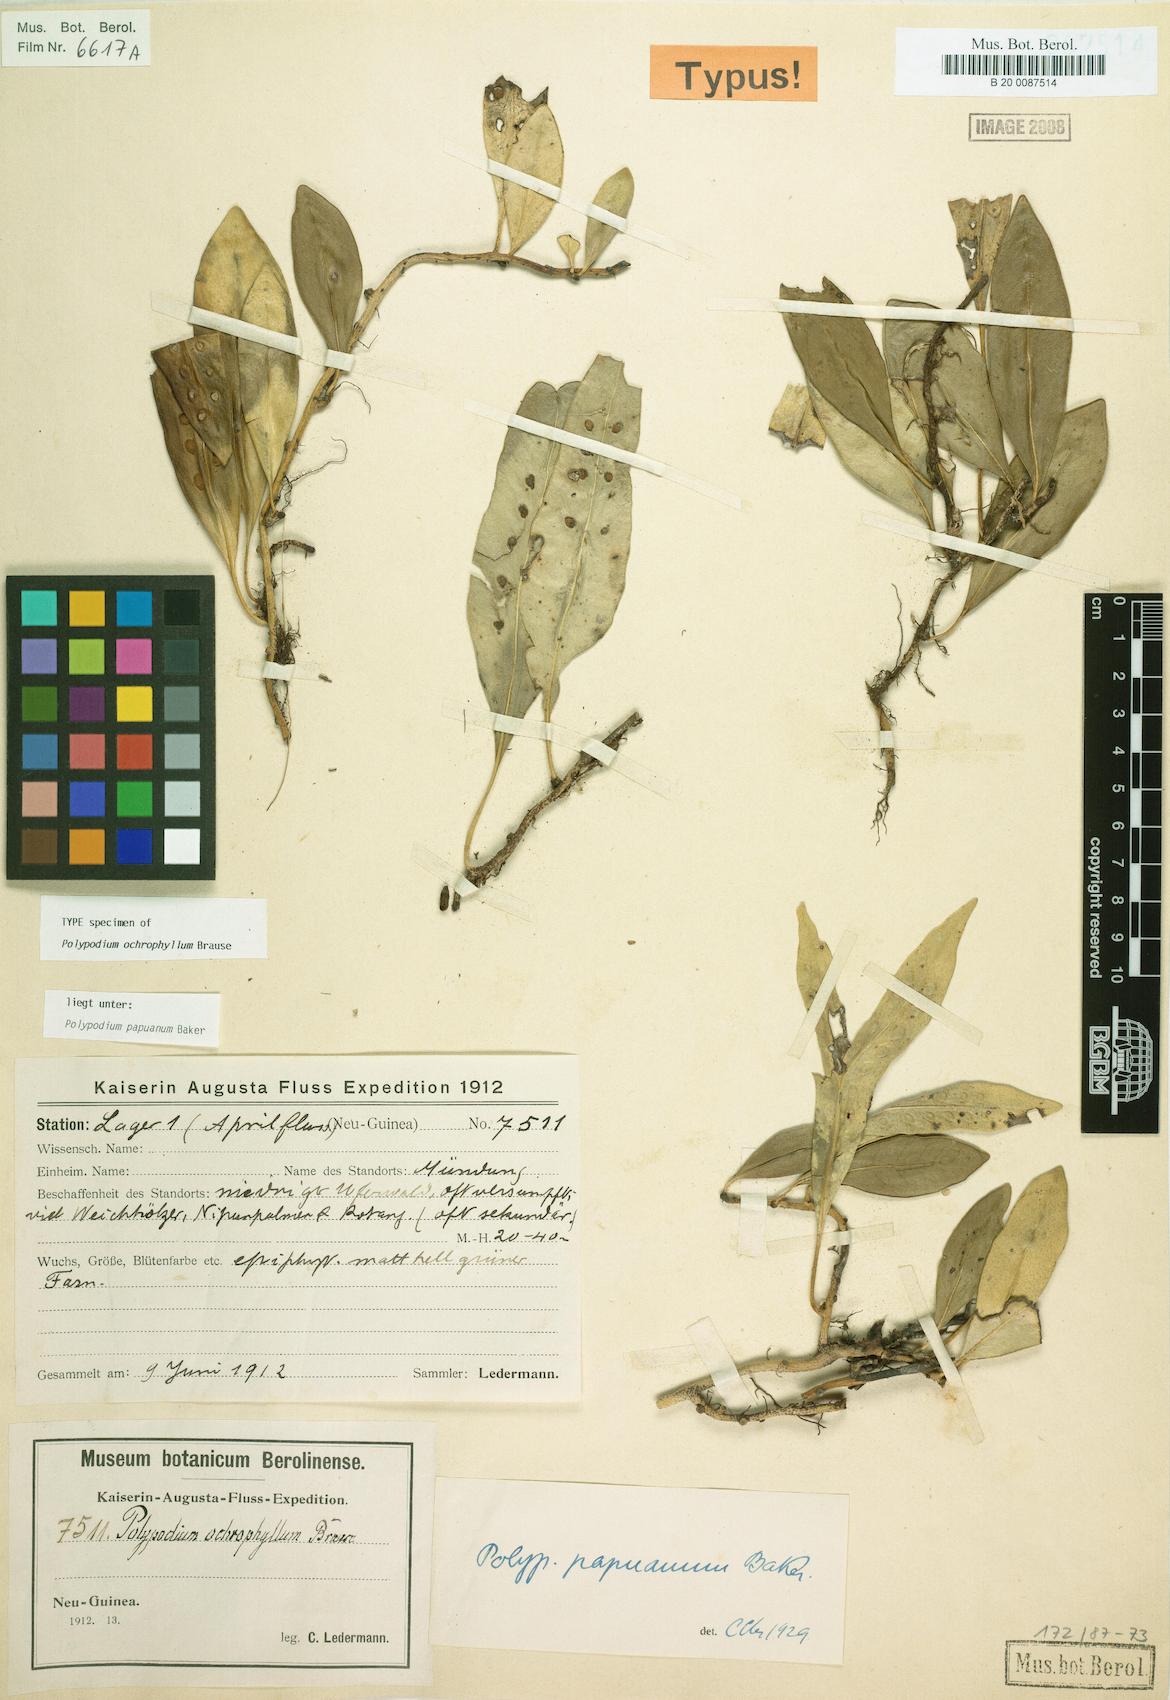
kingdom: Plantae
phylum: Tracheophyta
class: Polypodiopsida
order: Polypodiales
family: Polypodiaceae
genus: Microsorum
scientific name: Microsorum papuanum
